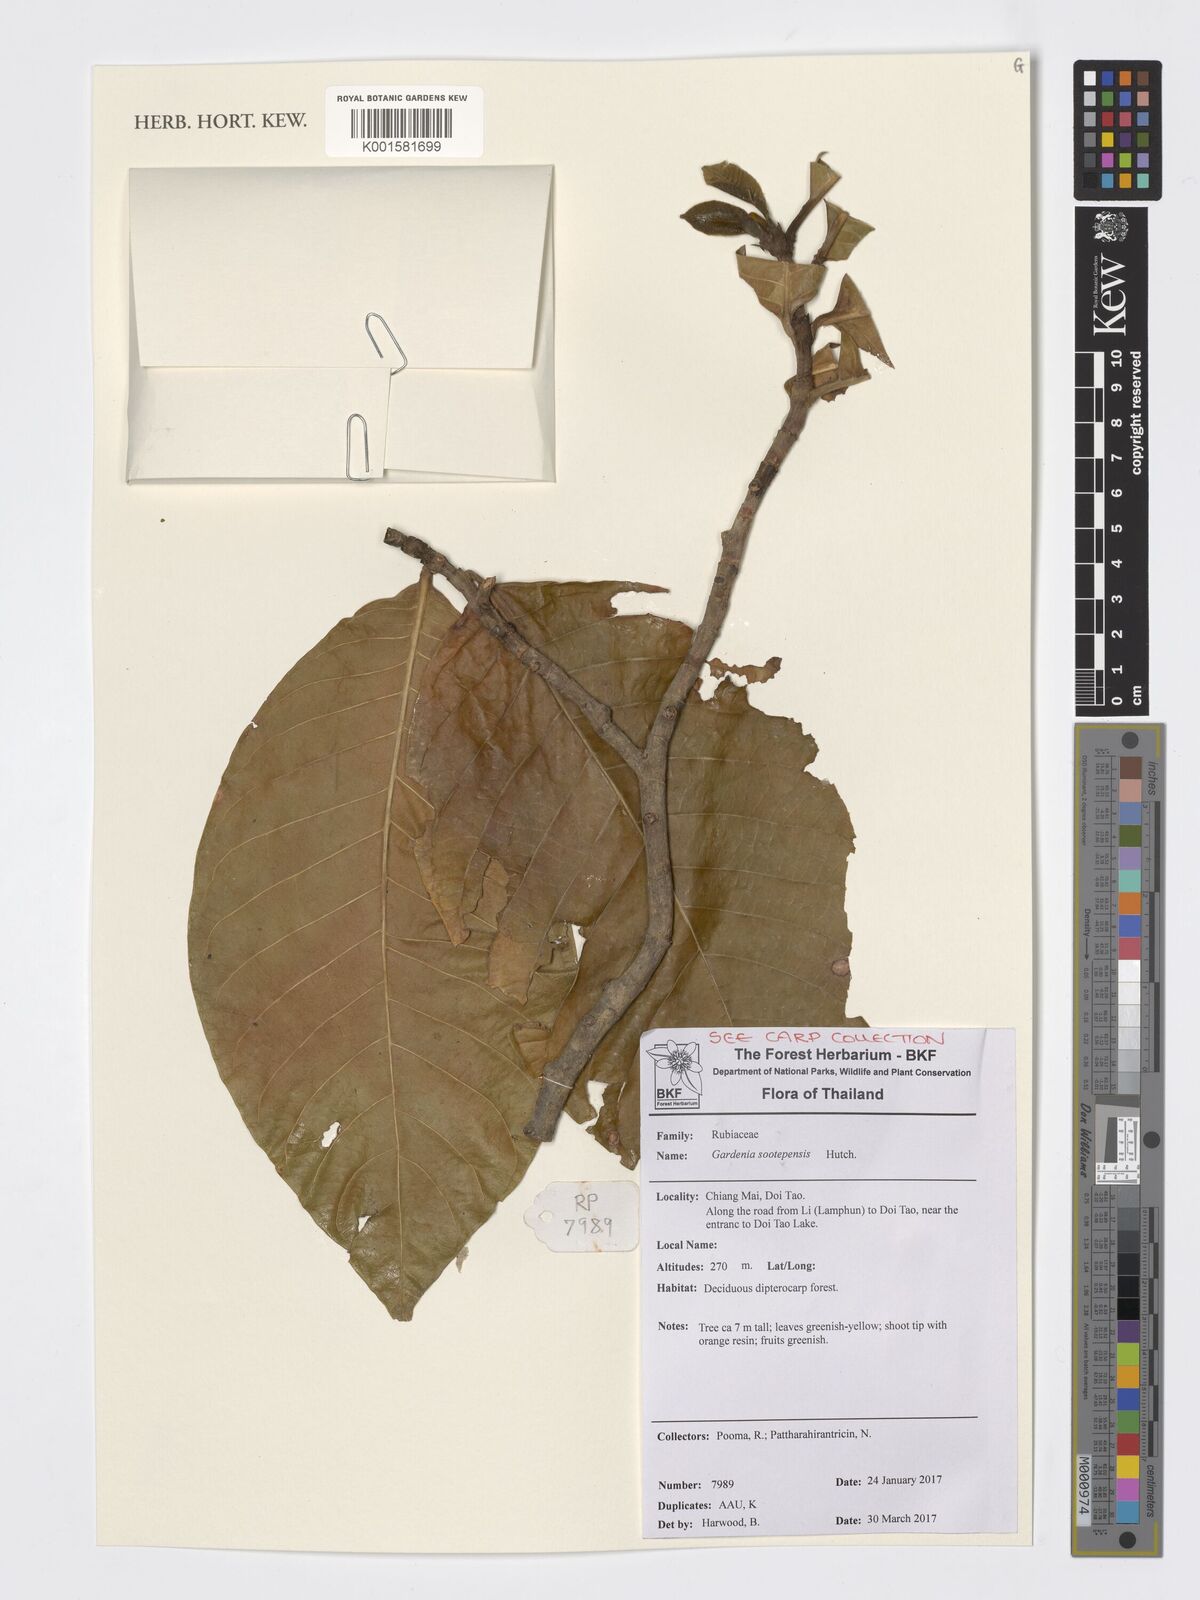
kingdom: Plantae
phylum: Tracheophyta
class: Magnoliopsida
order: Gentianales
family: Rubiaceae
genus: Gardenia
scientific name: Gardenia sootepensis
